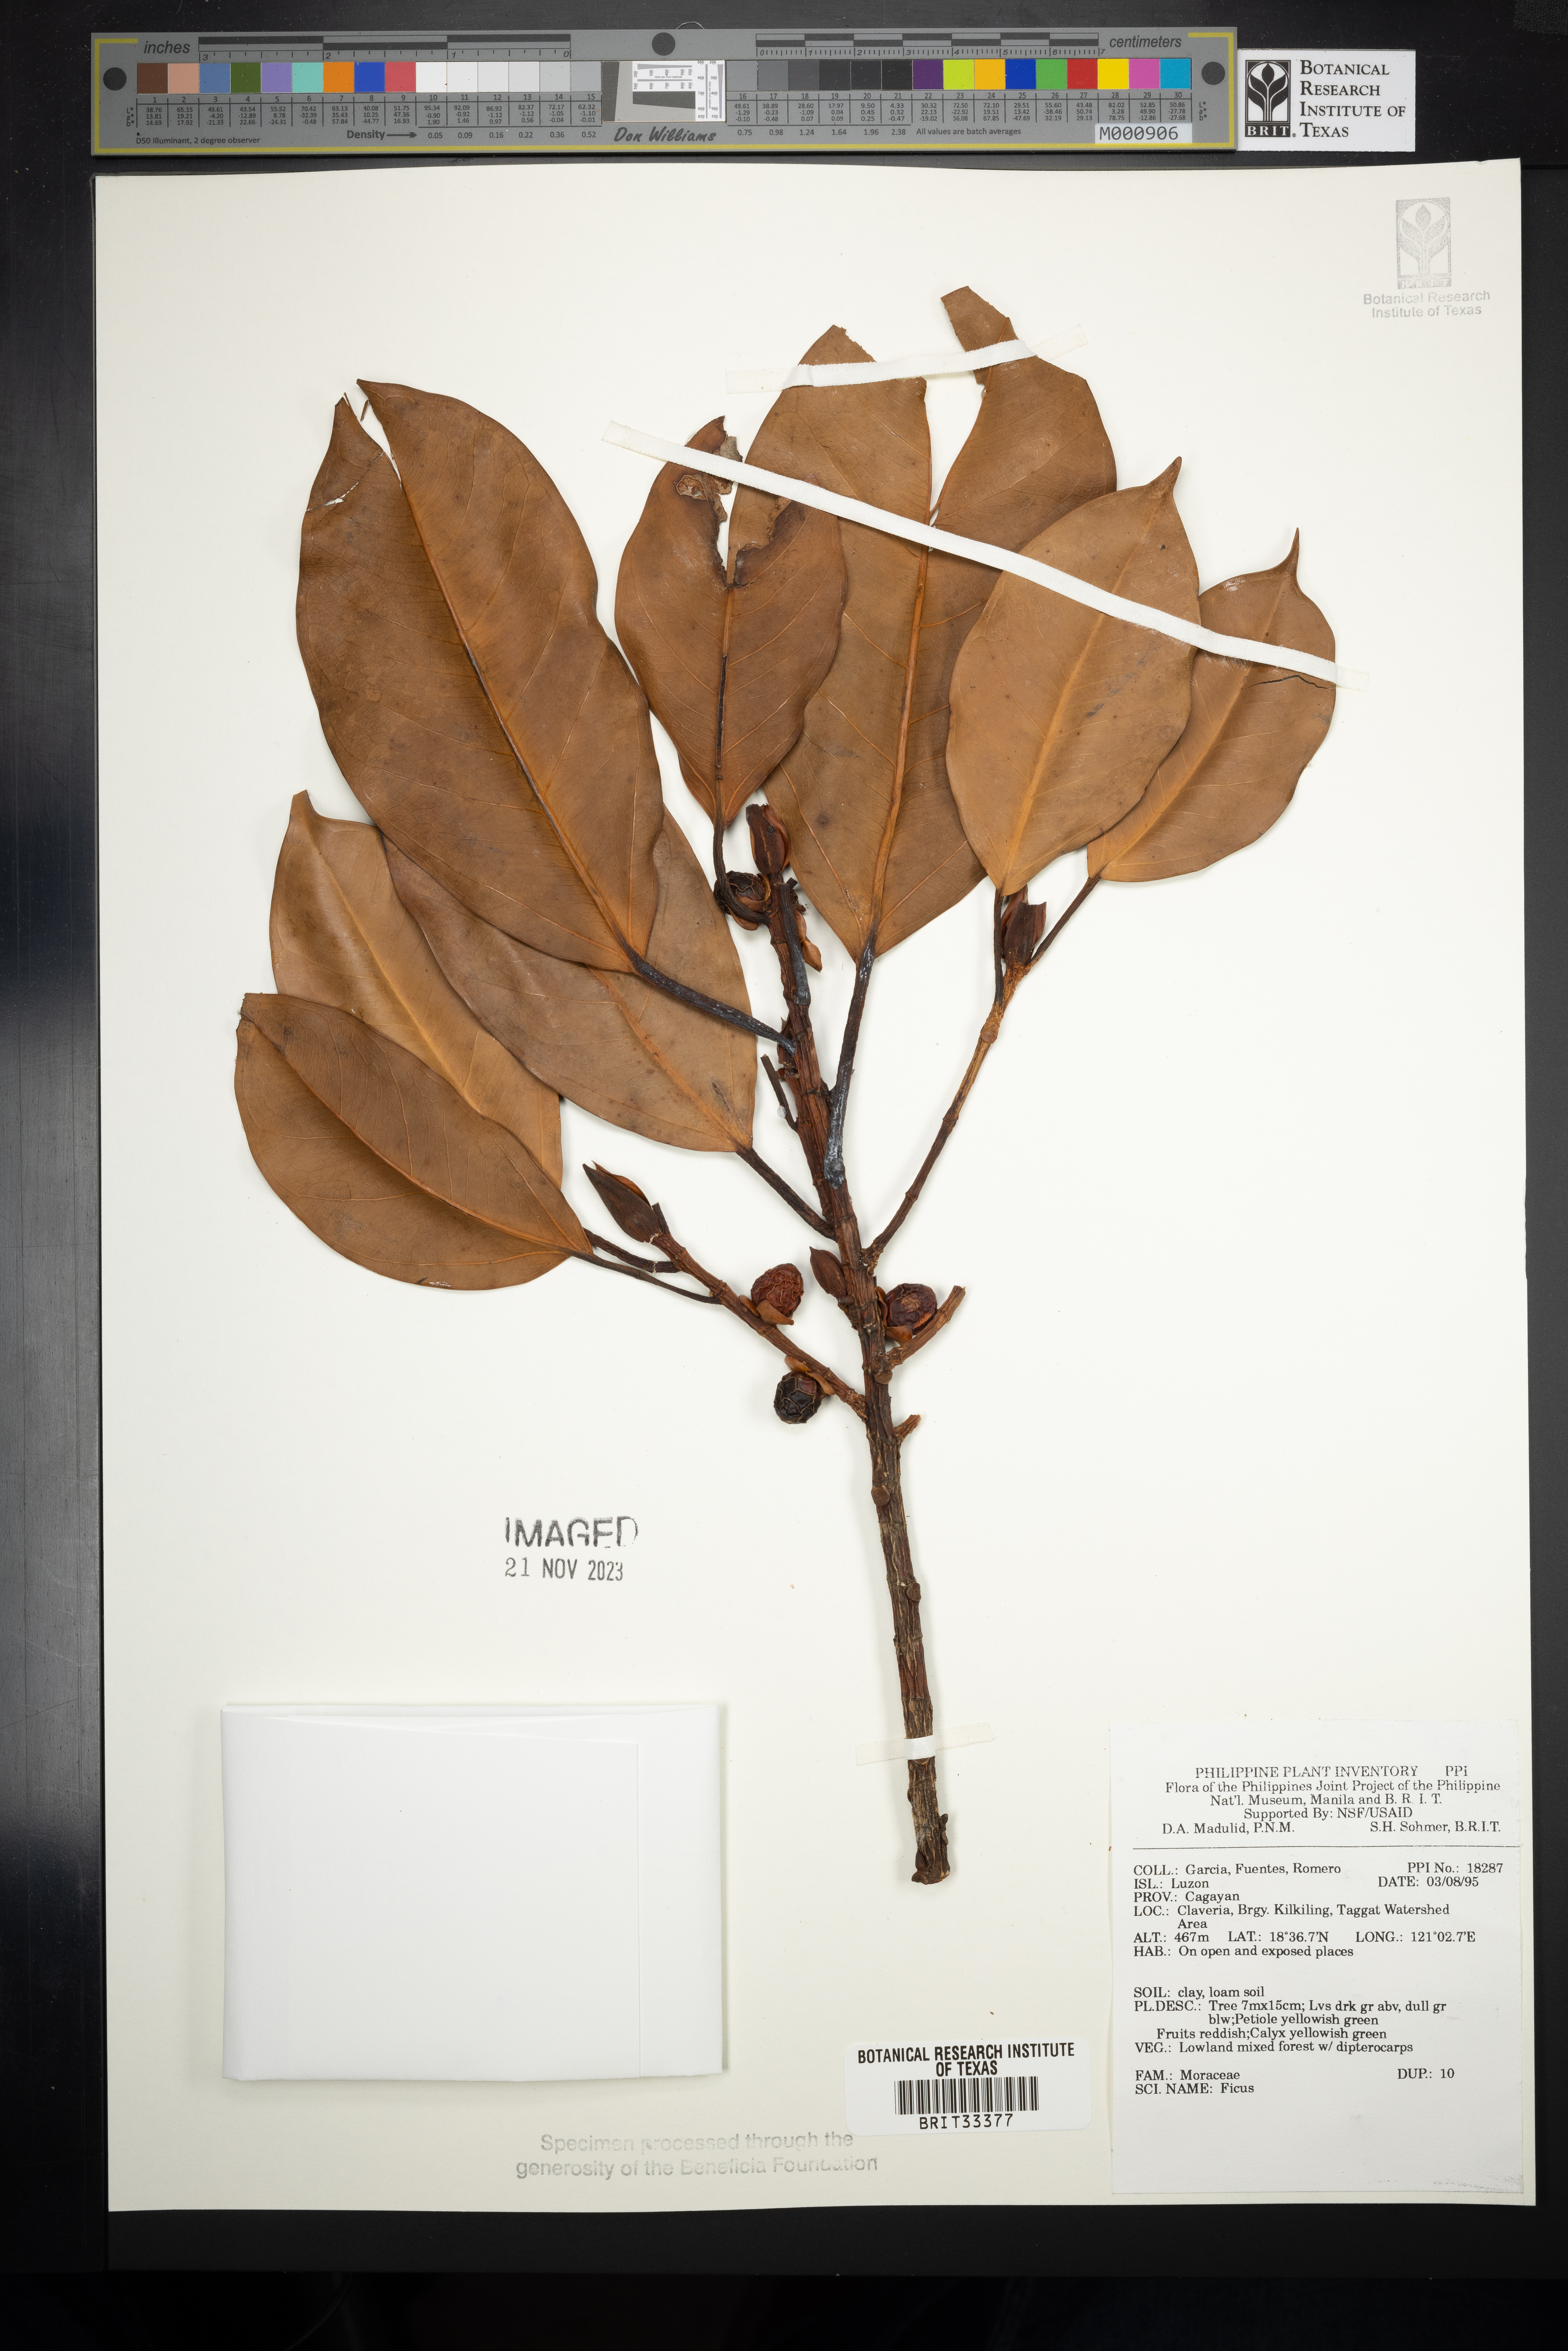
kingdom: Plantae
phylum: Tracheophyta
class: Magnoliopsida
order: Rosales
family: Moraceae
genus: Ficus
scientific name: Ficus
